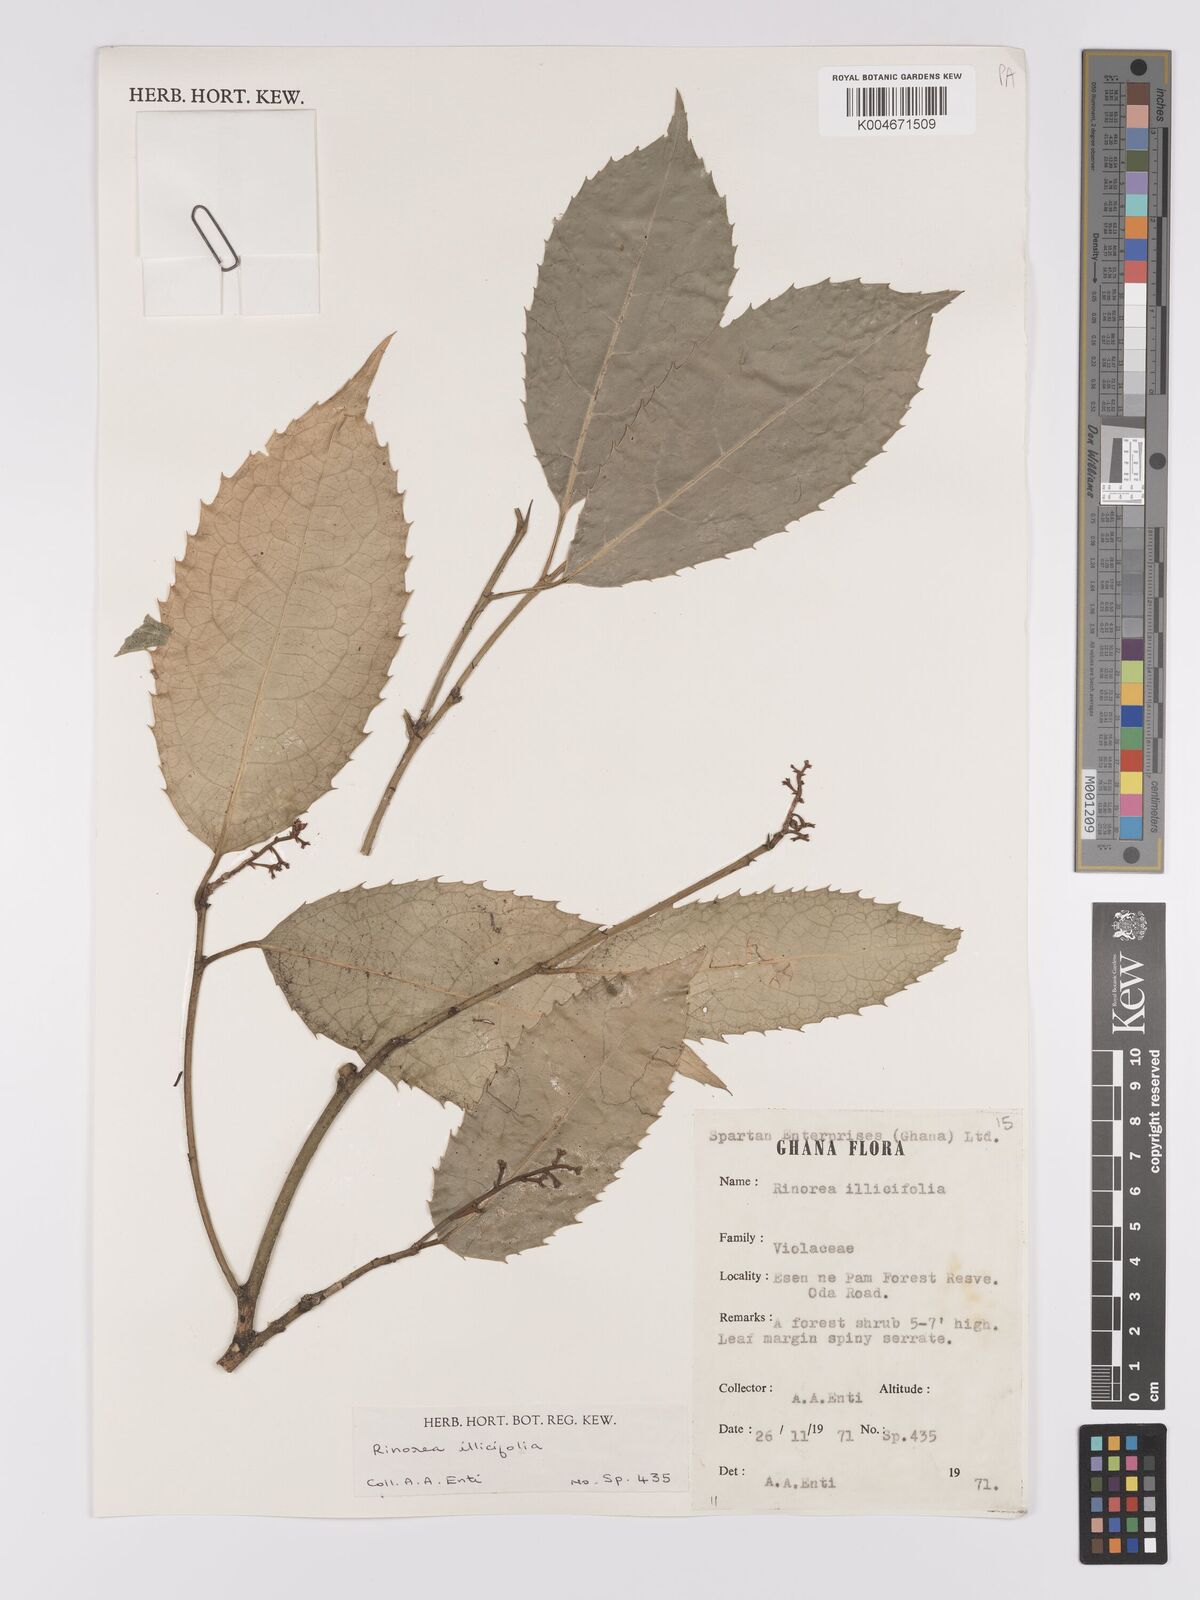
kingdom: Plantae
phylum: Tracheophyta
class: Magnoliopsida
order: Malpighiales
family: Violaceae
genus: Rinorea
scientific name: Rinorea ilicifolia
